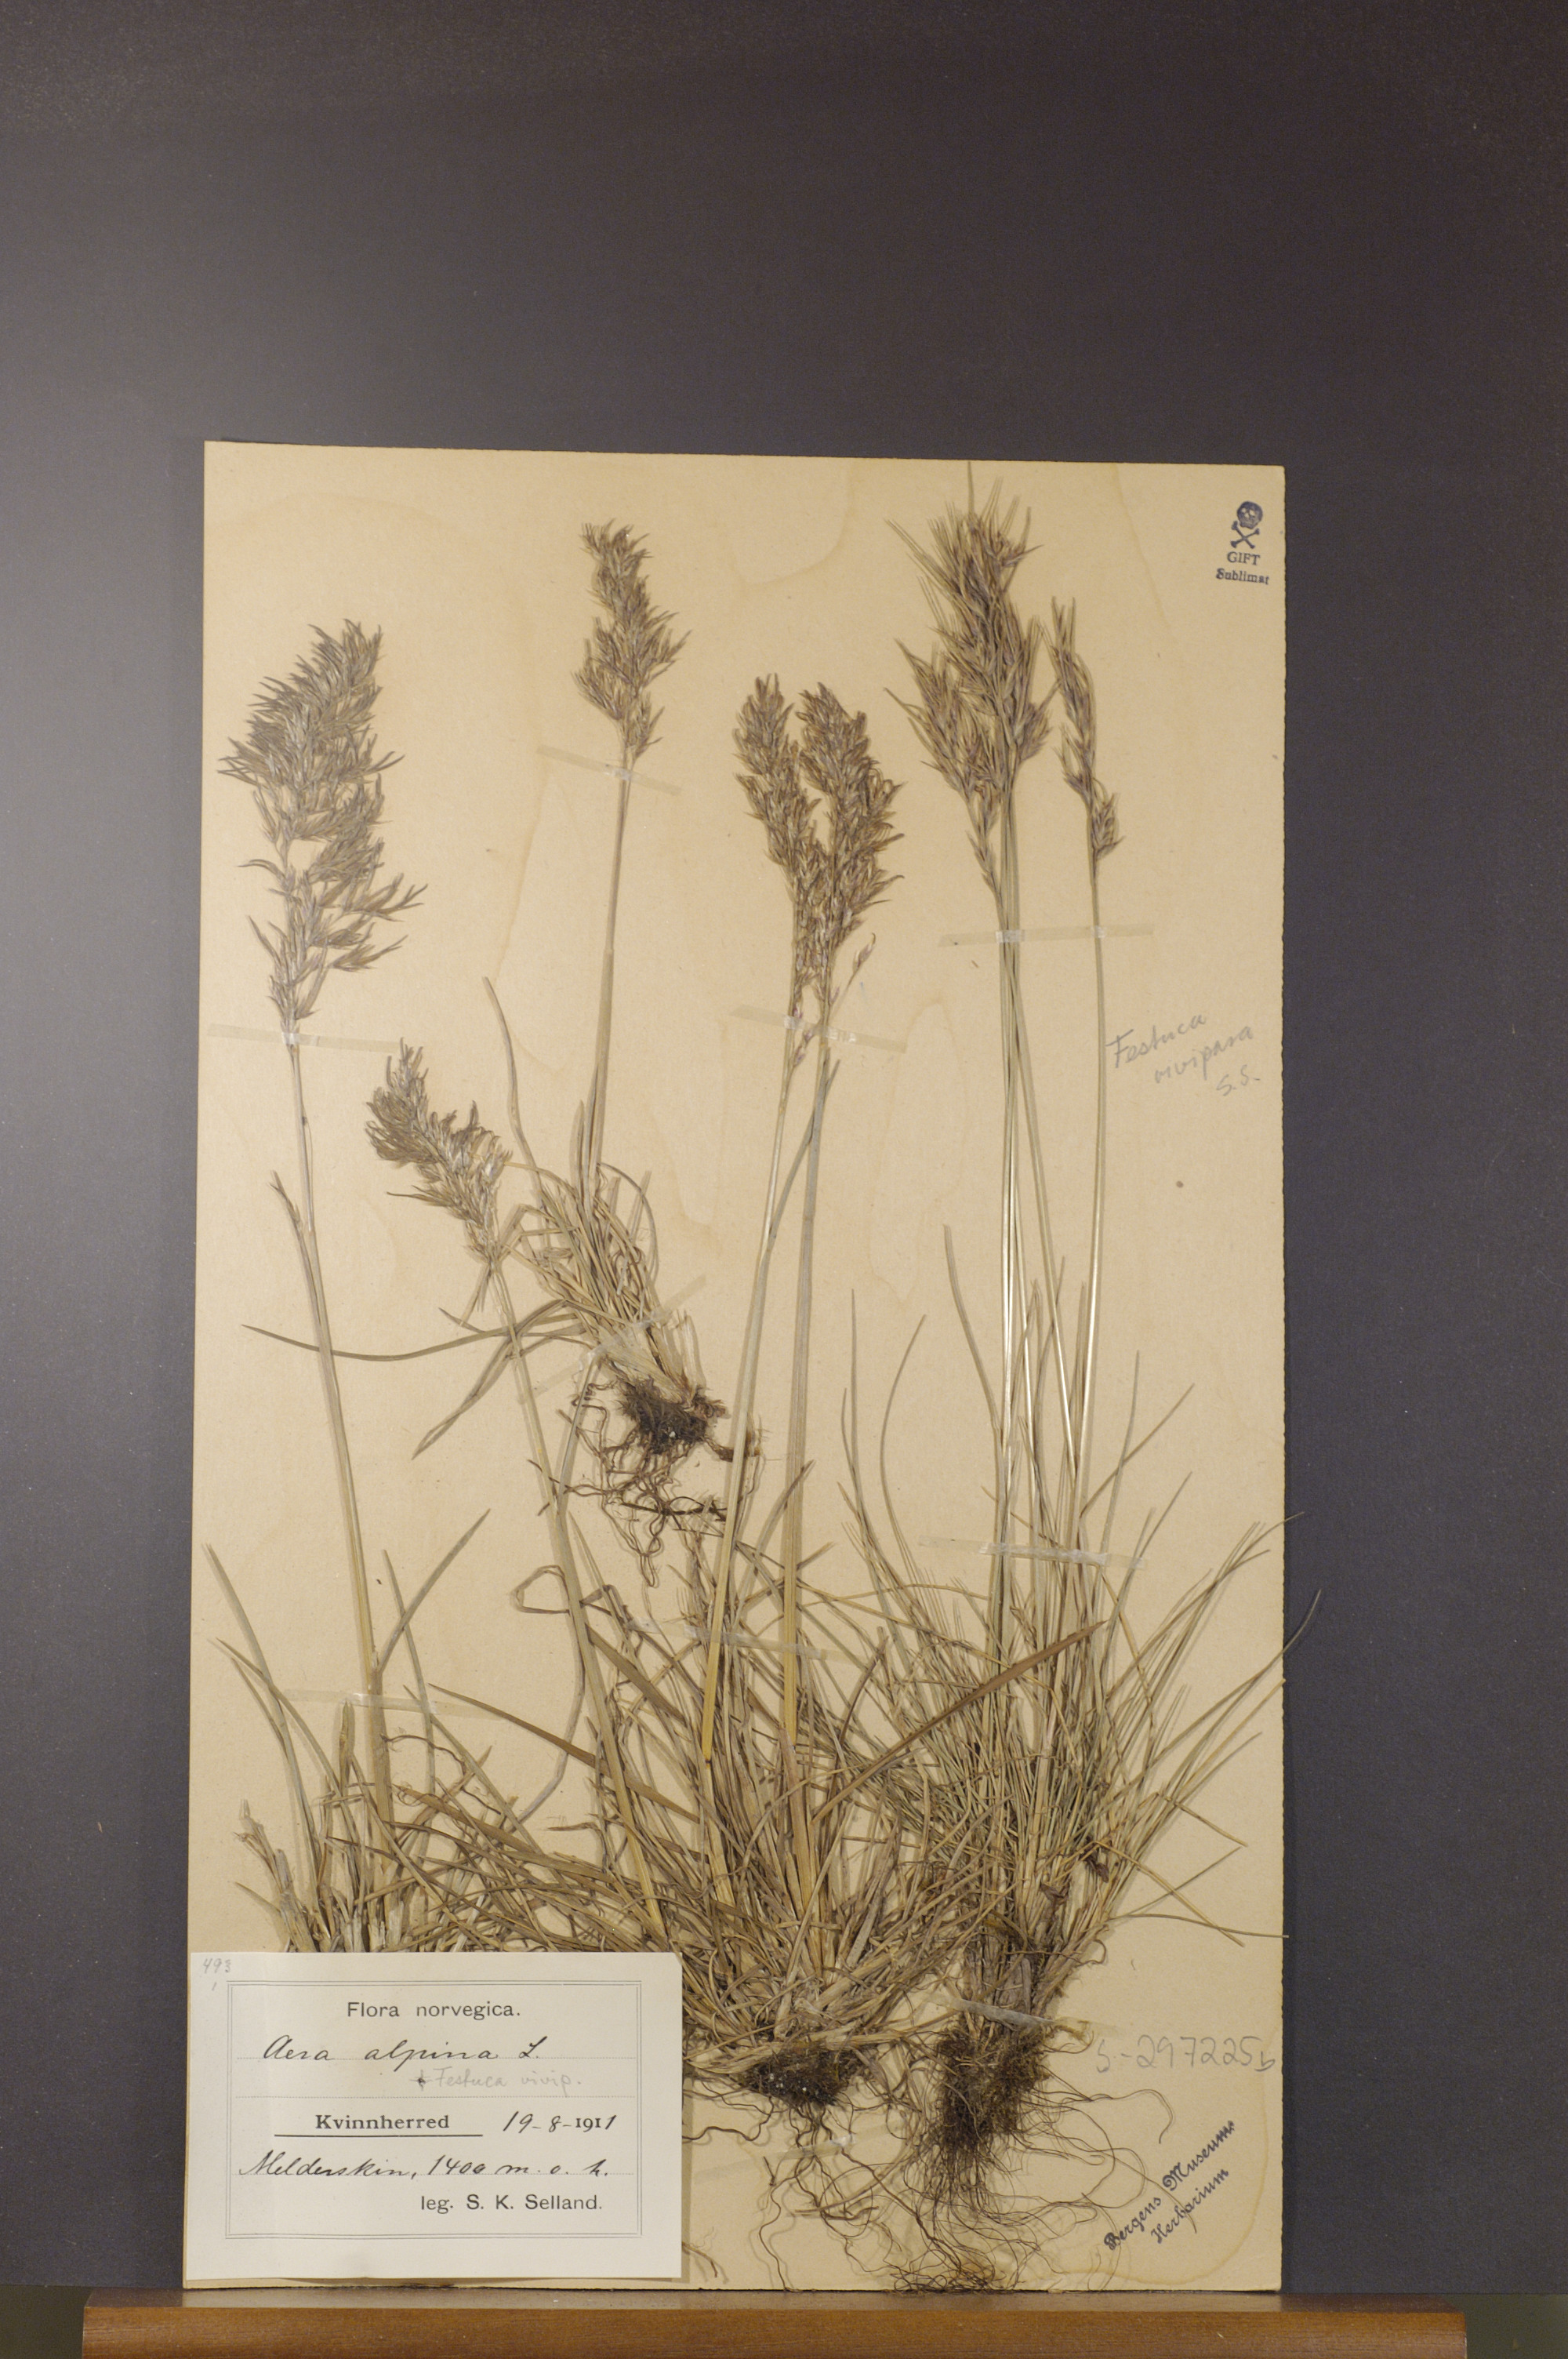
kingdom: Plantae
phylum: Tracheophyta
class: Liliopsida
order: Poales
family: Poaceae
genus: Deschampsia
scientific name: Deschampsia cespitosa
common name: Tufted hair-grass
